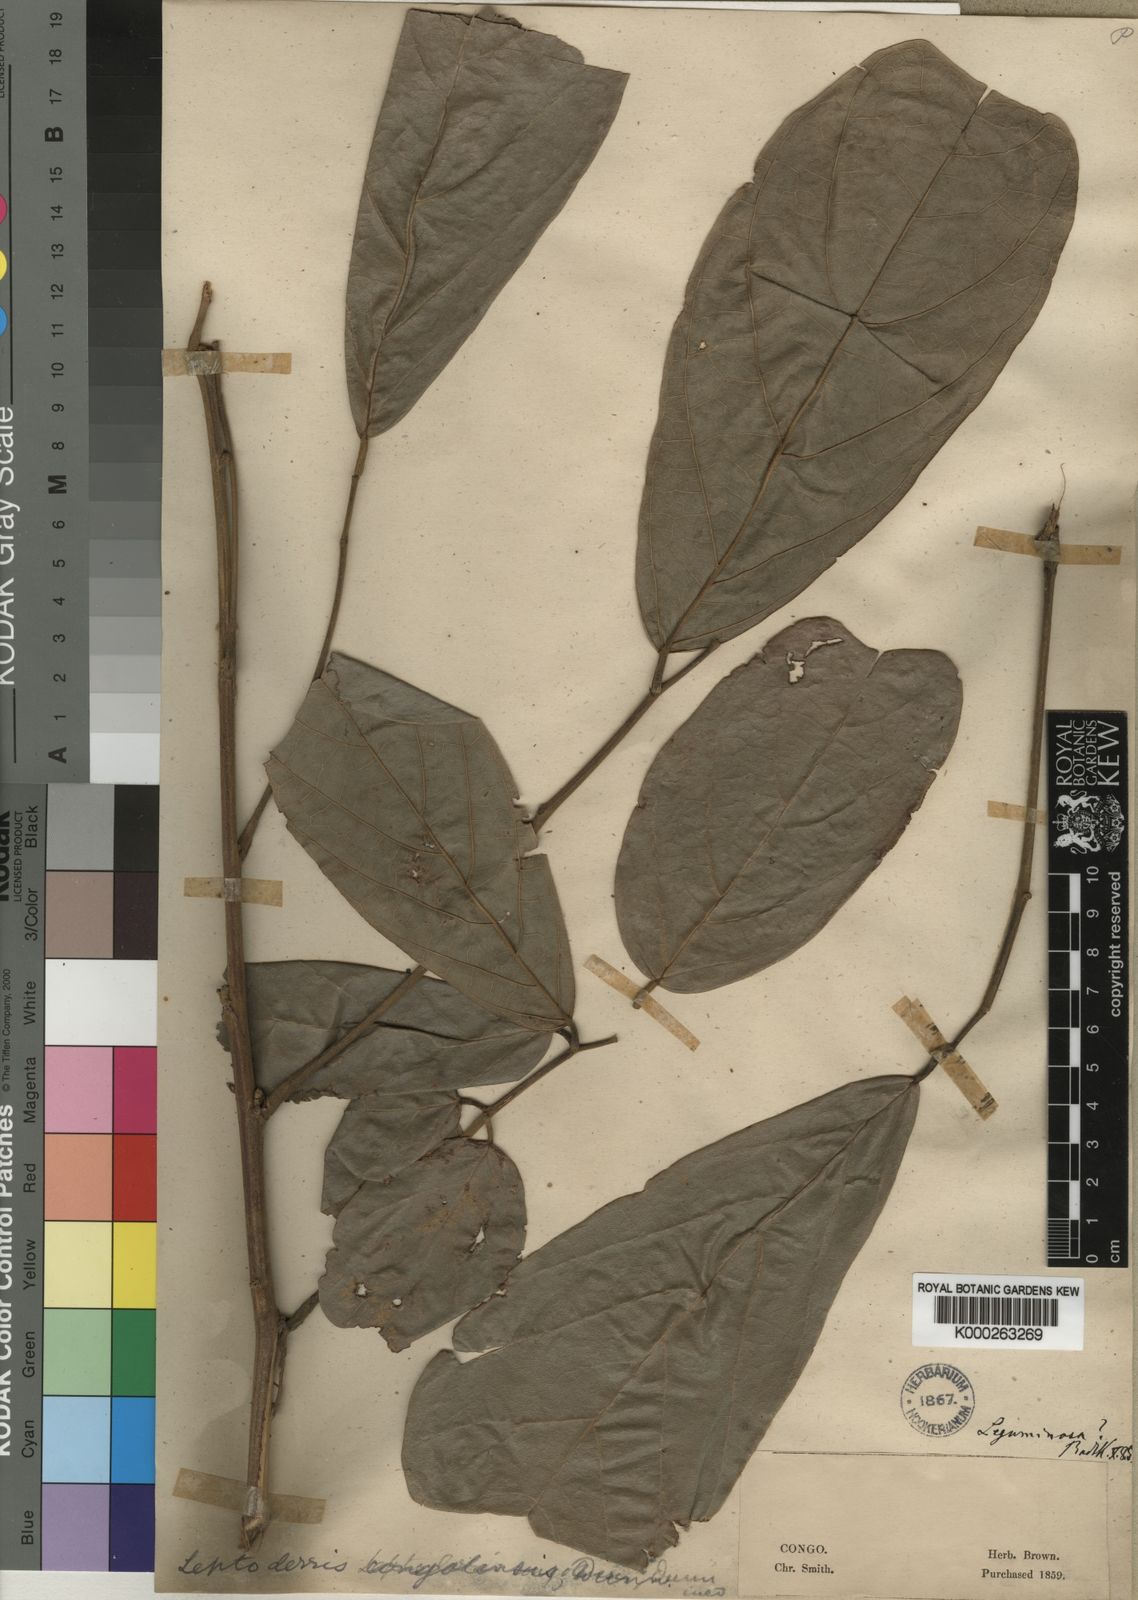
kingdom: Plantae
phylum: Tracheophyta
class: Magnoliopsida
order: Fabales
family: Fabaceae
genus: Leptoderris
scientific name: Leptoderris congolensis
